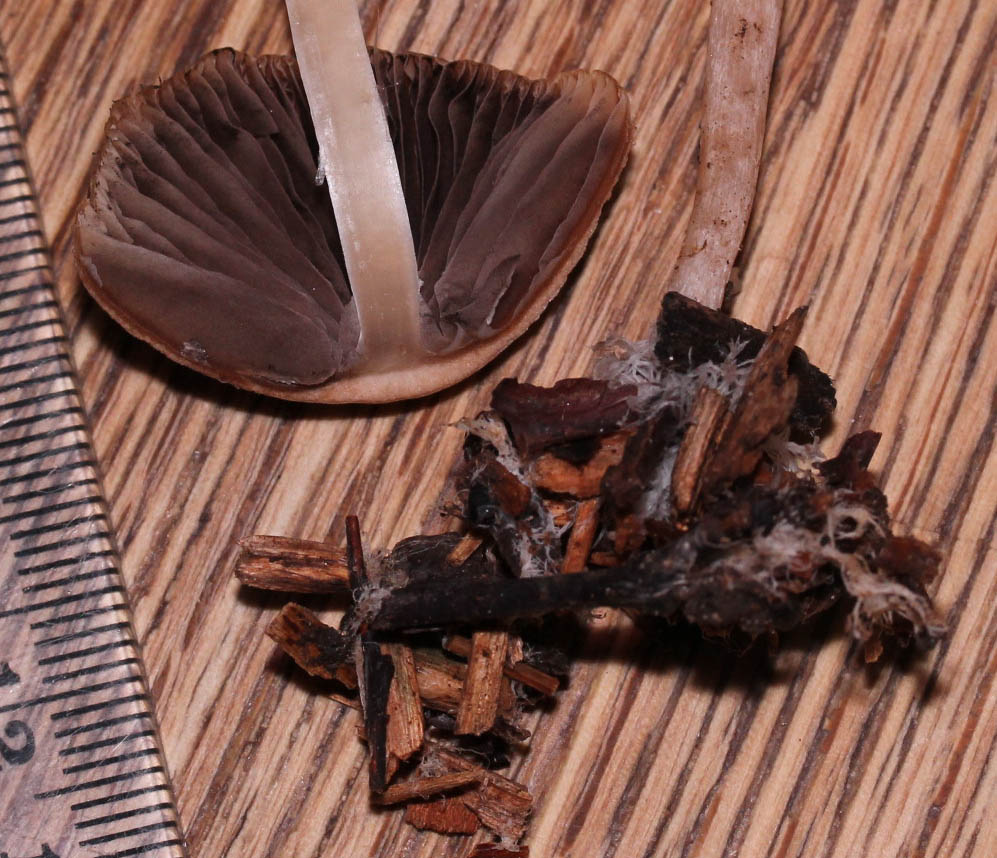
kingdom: Fungi
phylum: Basidiomycota
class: Agaricomycetes
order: Agaricales
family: Psathyrellaceae
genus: Psathyrella
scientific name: Psathyrella microrhiza
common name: rod-mørkhat
